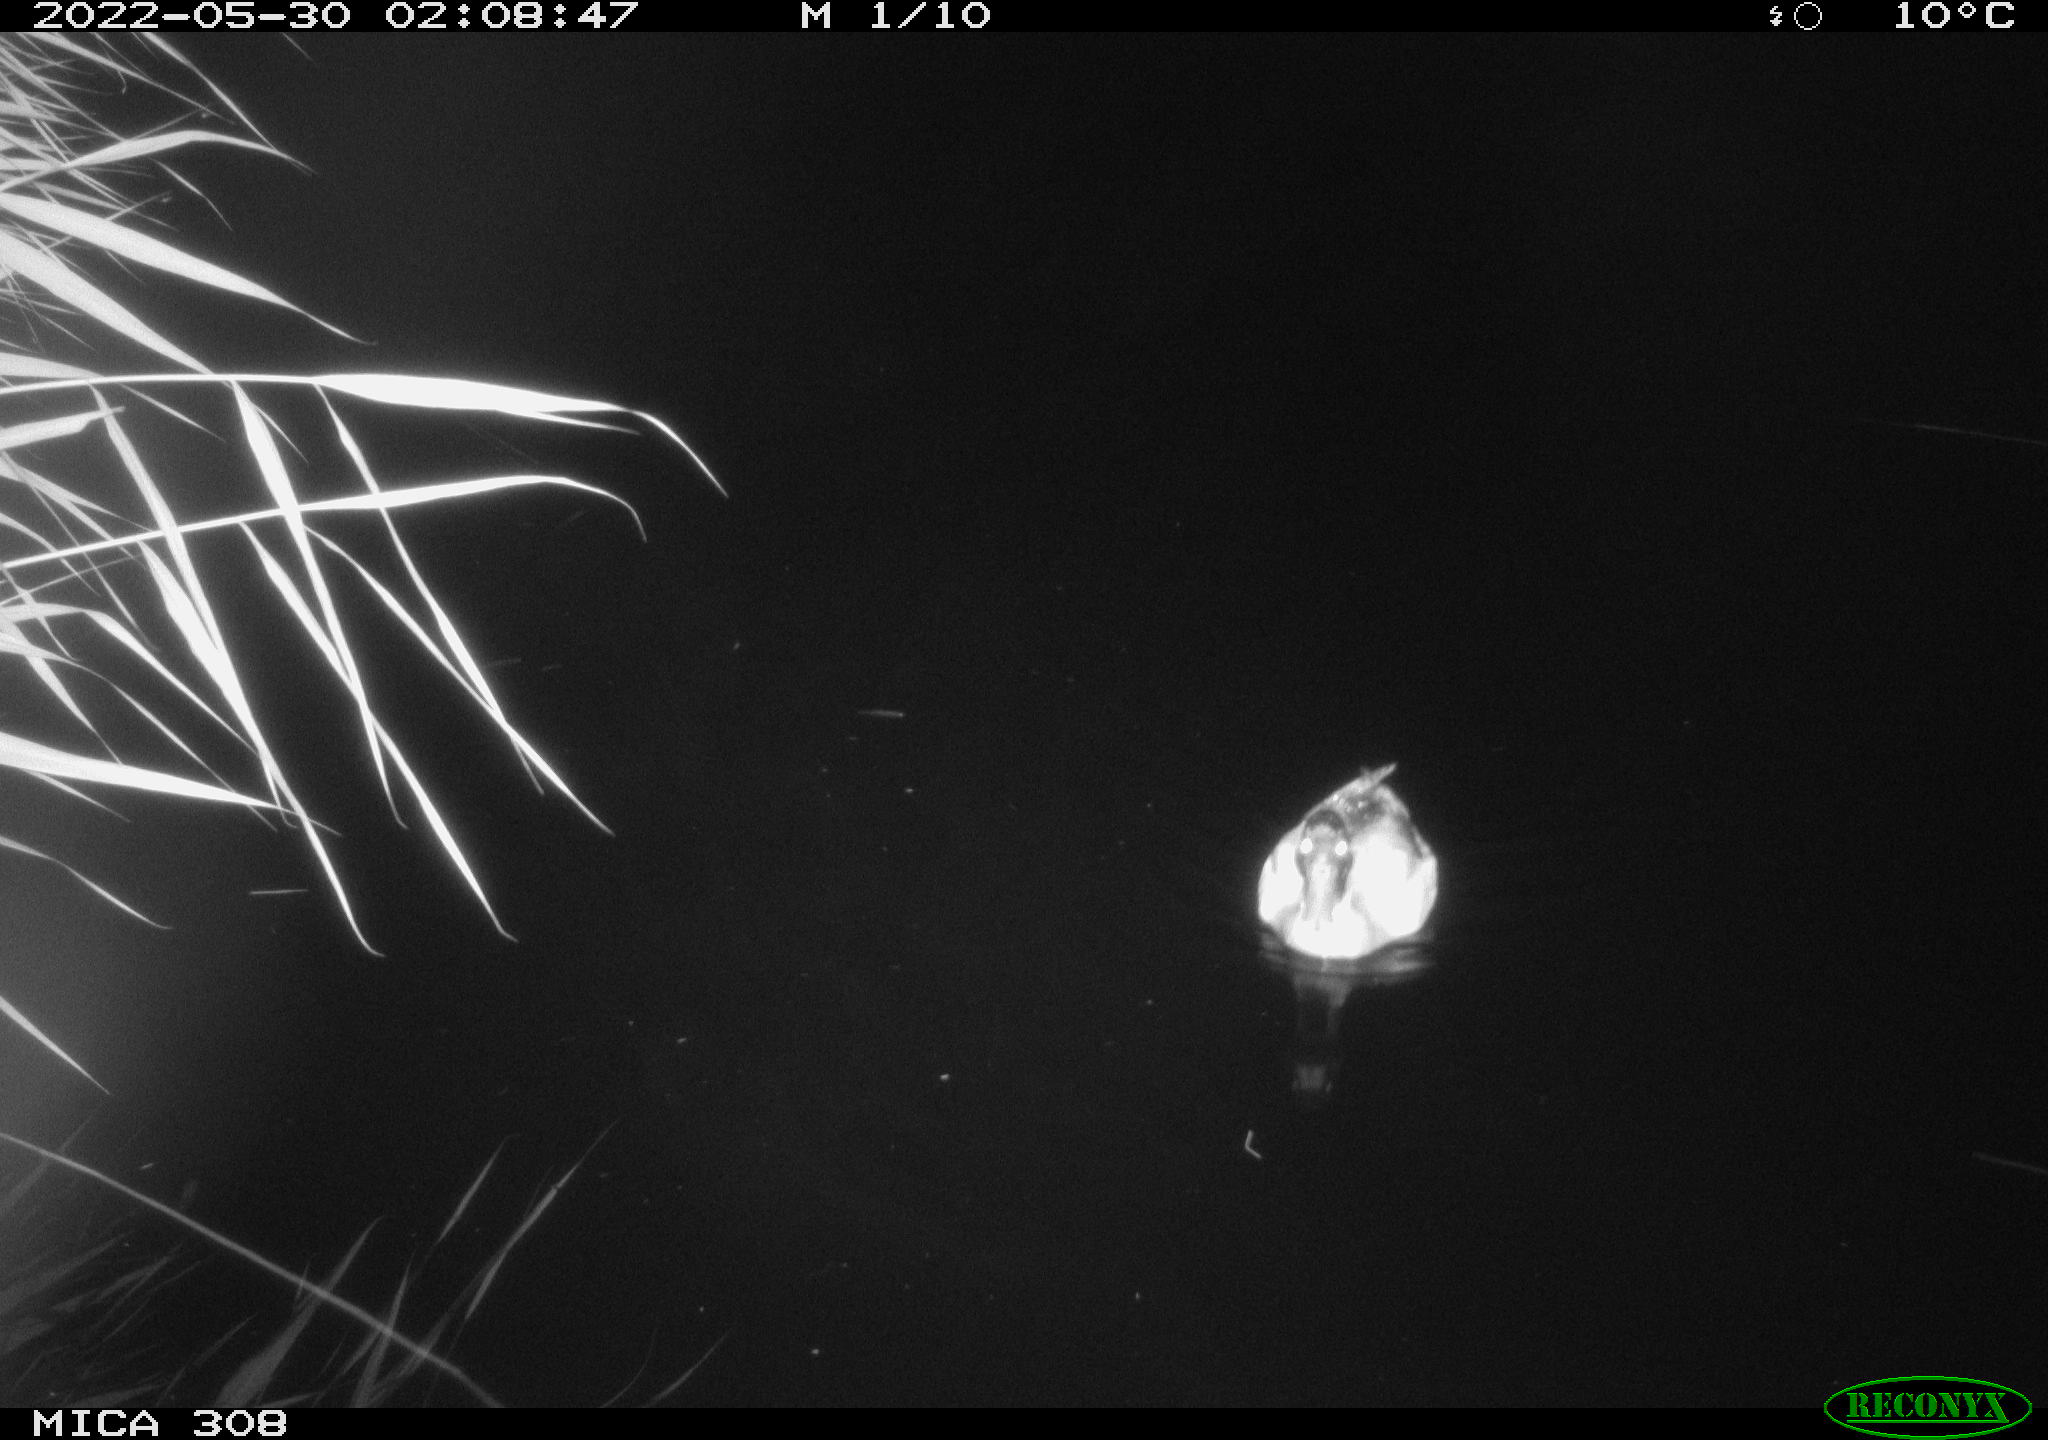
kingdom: Animalia
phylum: Chordata
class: Aves
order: Anseriformes
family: Anatidae
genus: Anas
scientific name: Anas platyrhynchos
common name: Mallard
